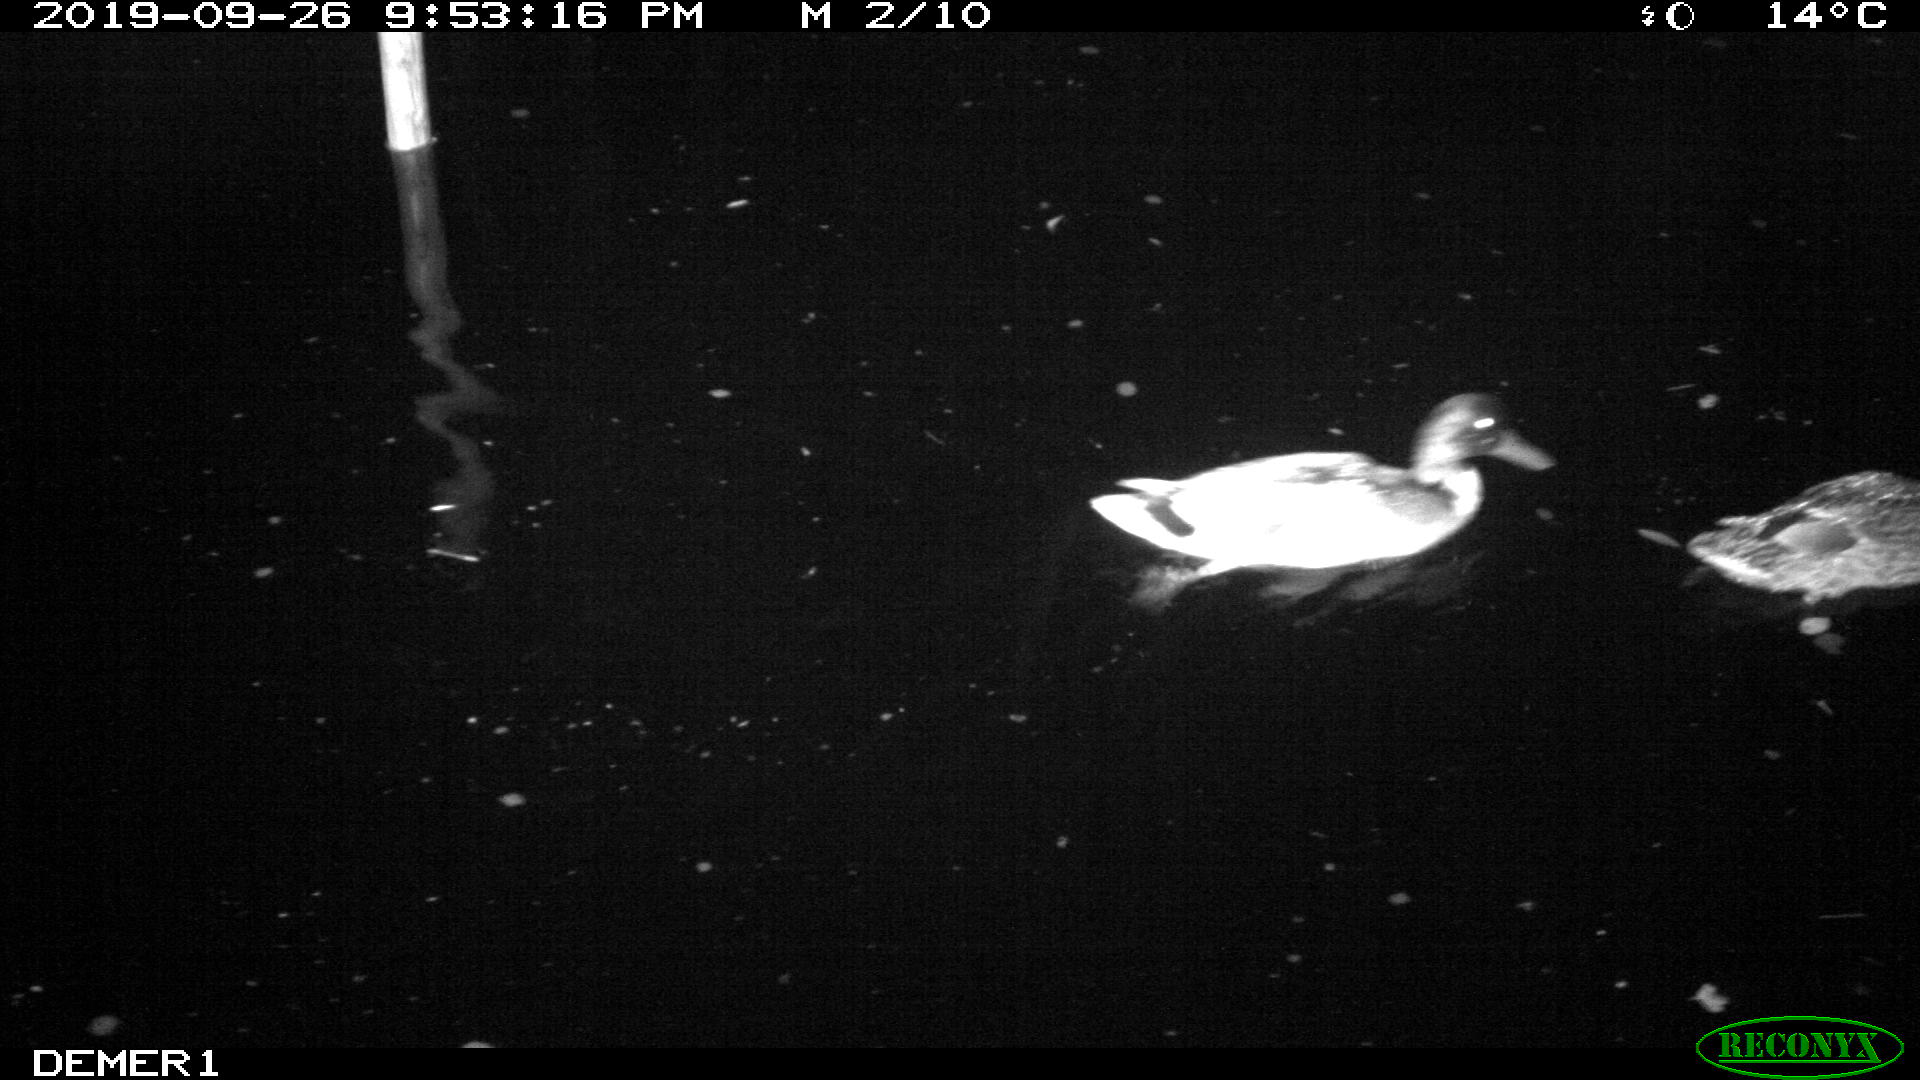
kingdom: Animalia
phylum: Chordata
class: Aves
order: Anseriformes
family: Anatidae
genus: Anas
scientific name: Anas platyrhynchos
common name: Mallard
